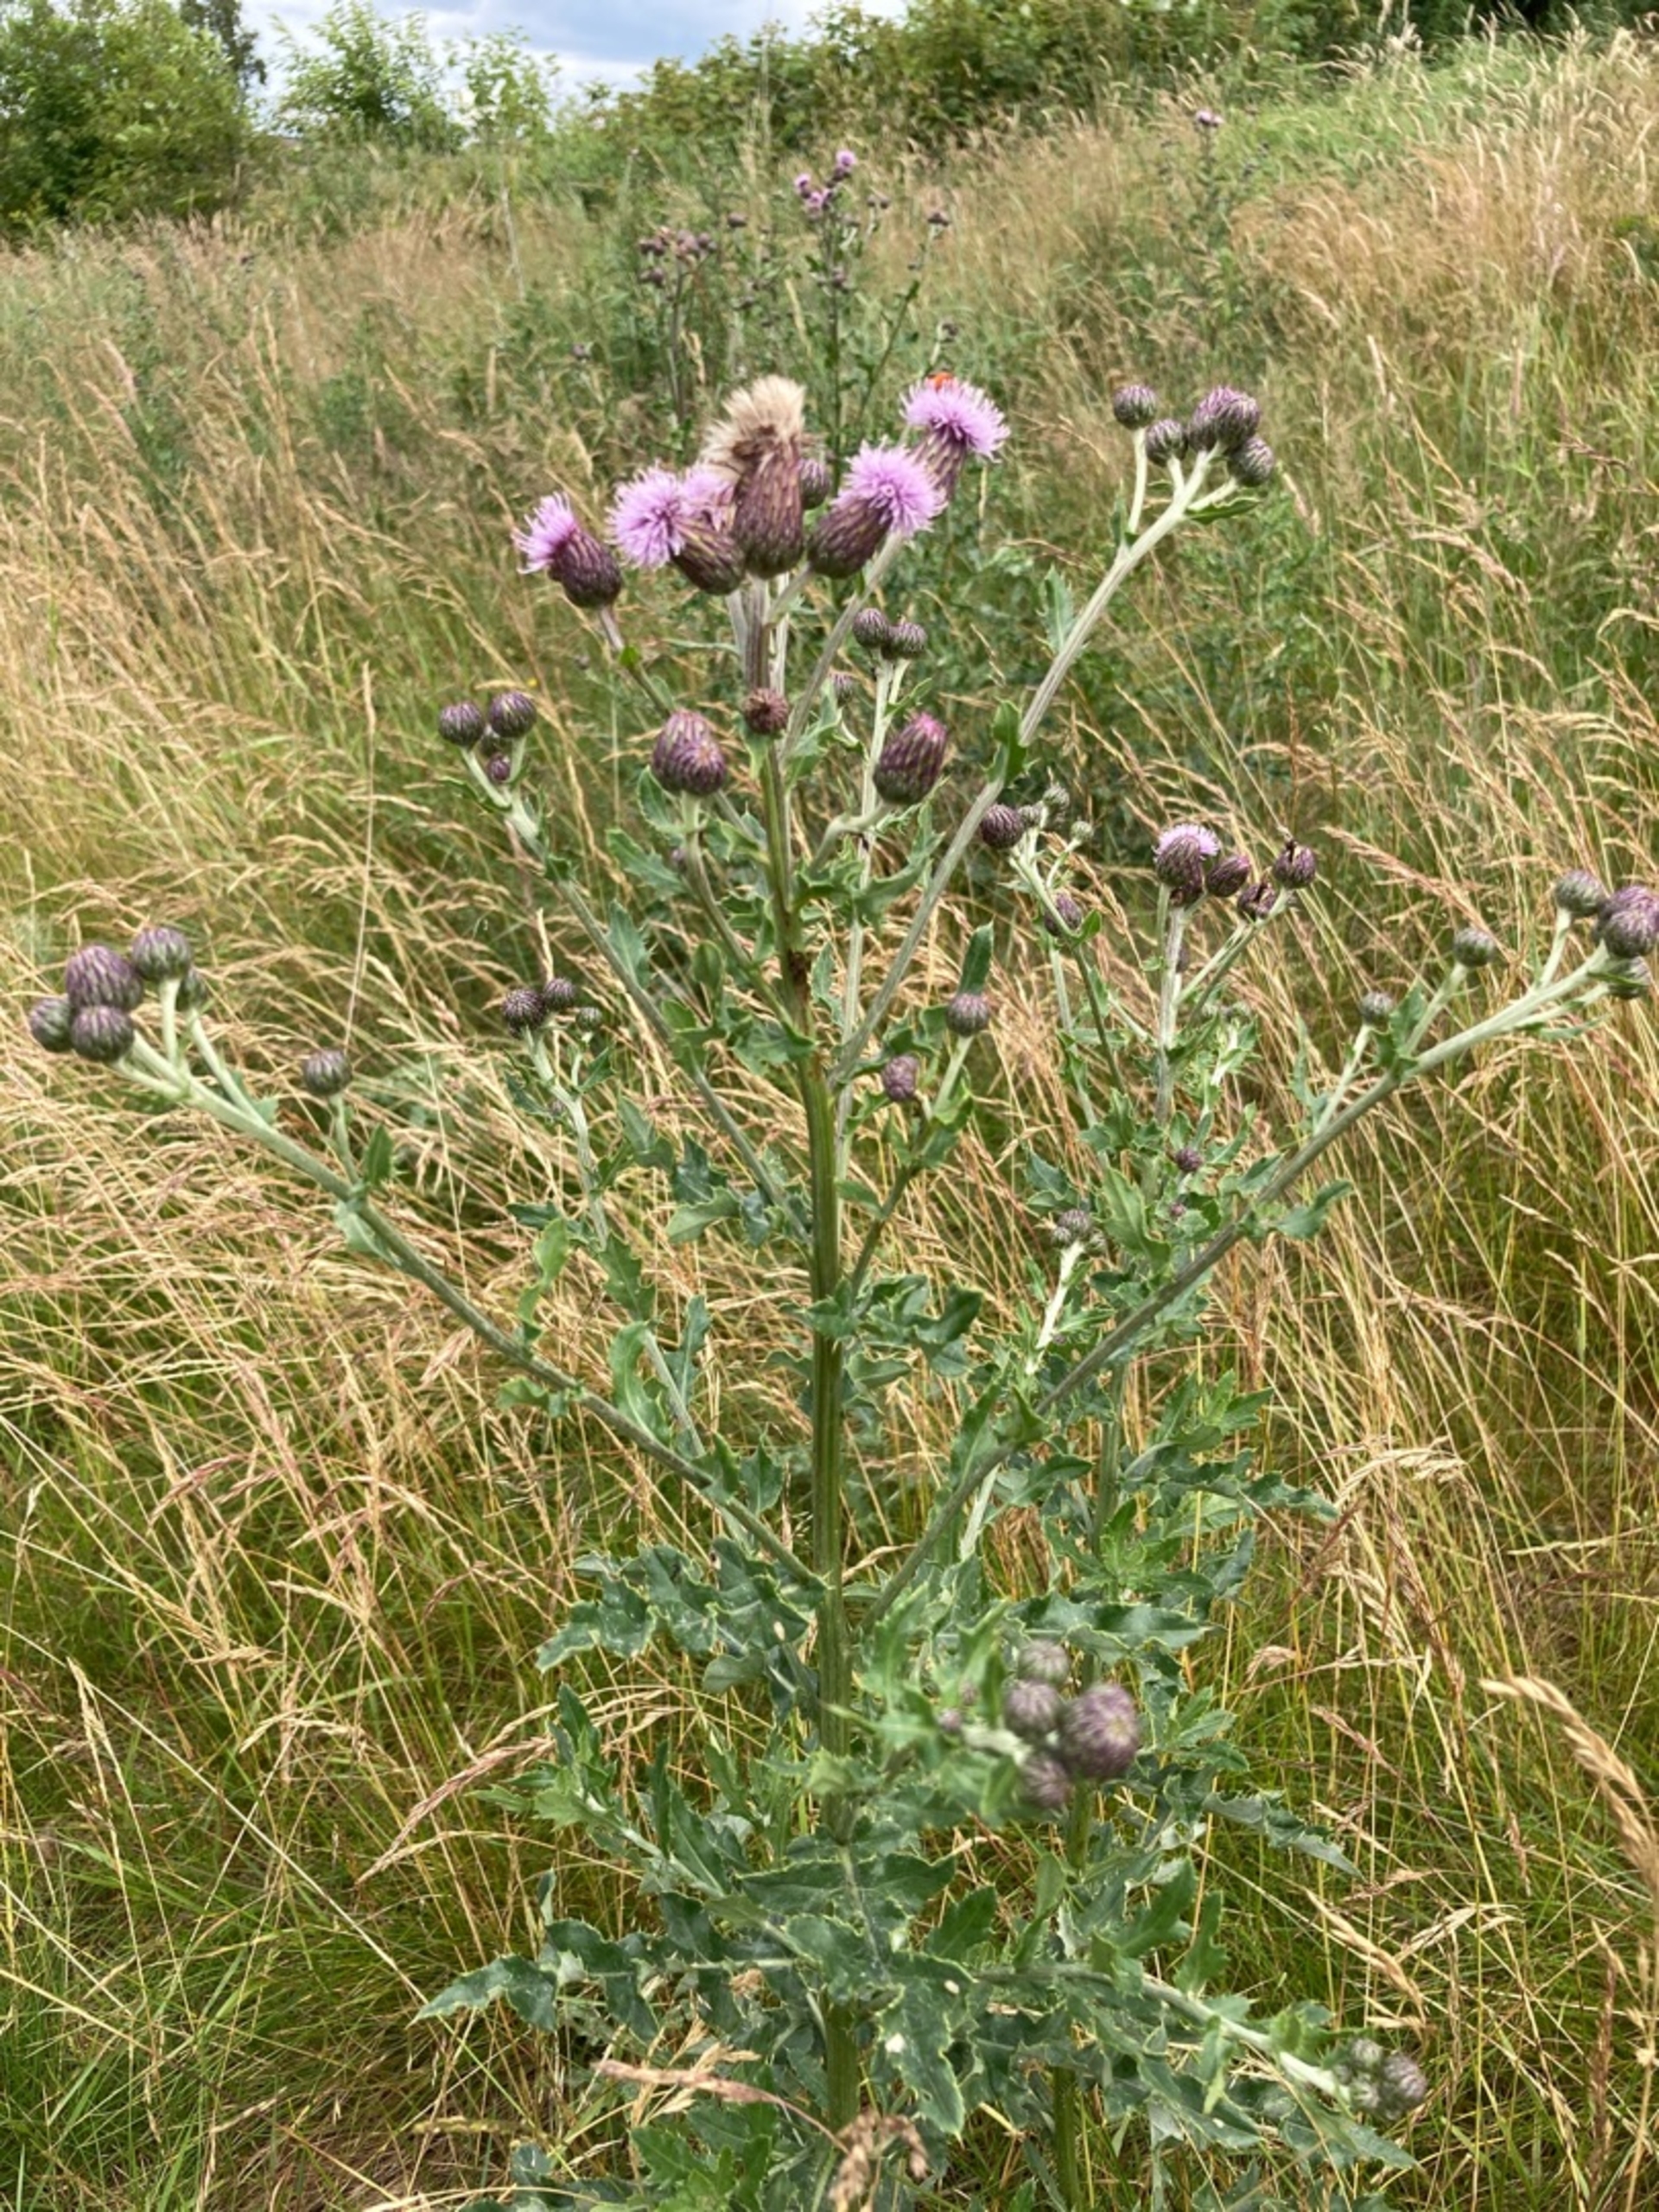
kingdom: Plantae
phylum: Tracheophyta
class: Magnoliopsida
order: Asterales
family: Asteraceae
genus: Cirsium
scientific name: Cirsium arvense
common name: Ager-tidsel
